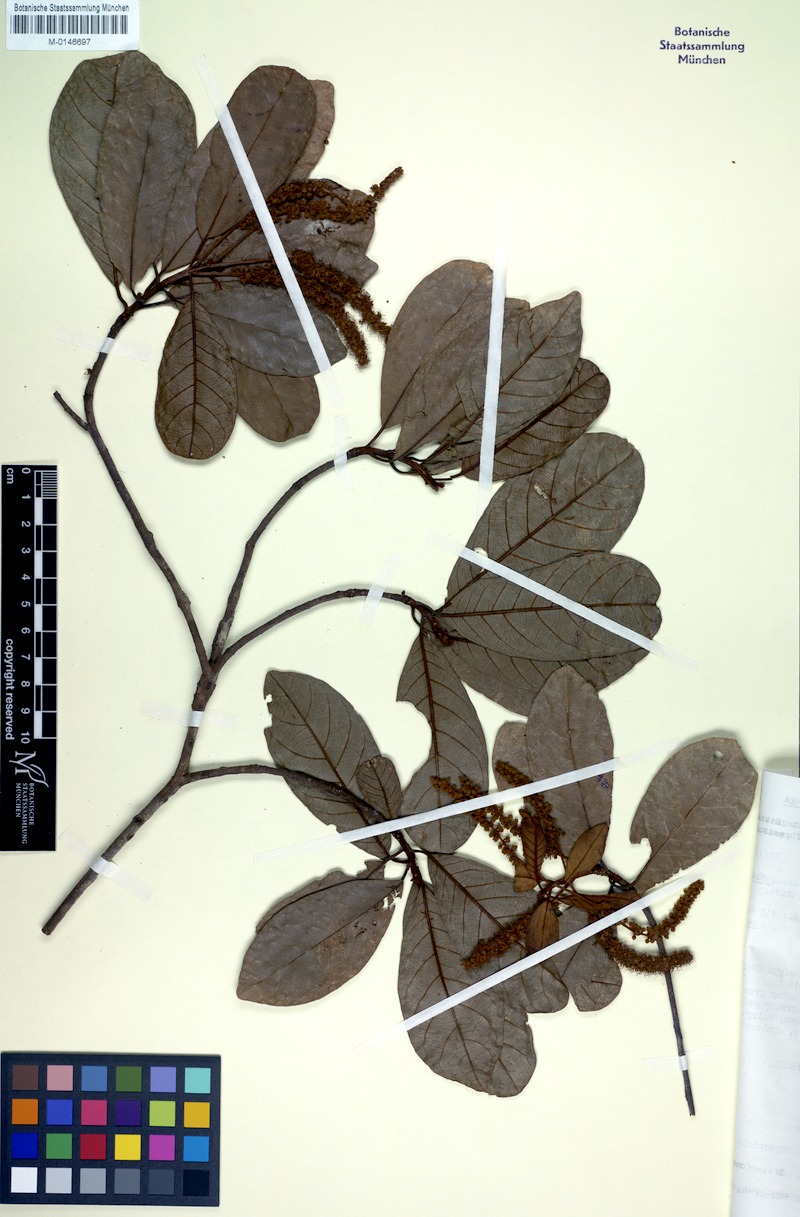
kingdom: Plantae
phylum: Tracheophyta
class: Magnoliopsida
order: Myrtales
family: Combretaceae
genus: Terminalia
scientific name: Terminalia longespicata
